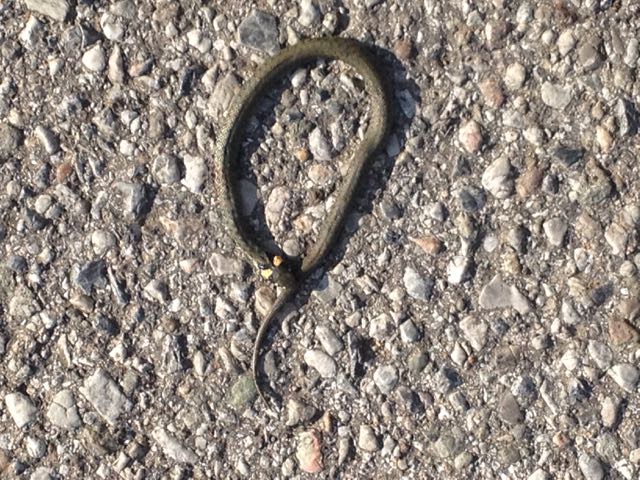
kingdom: Animalia
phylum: Chordata
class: Squamata
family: Colubridae
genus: Natrix
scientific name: Natrix natrix
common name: Grass snake
